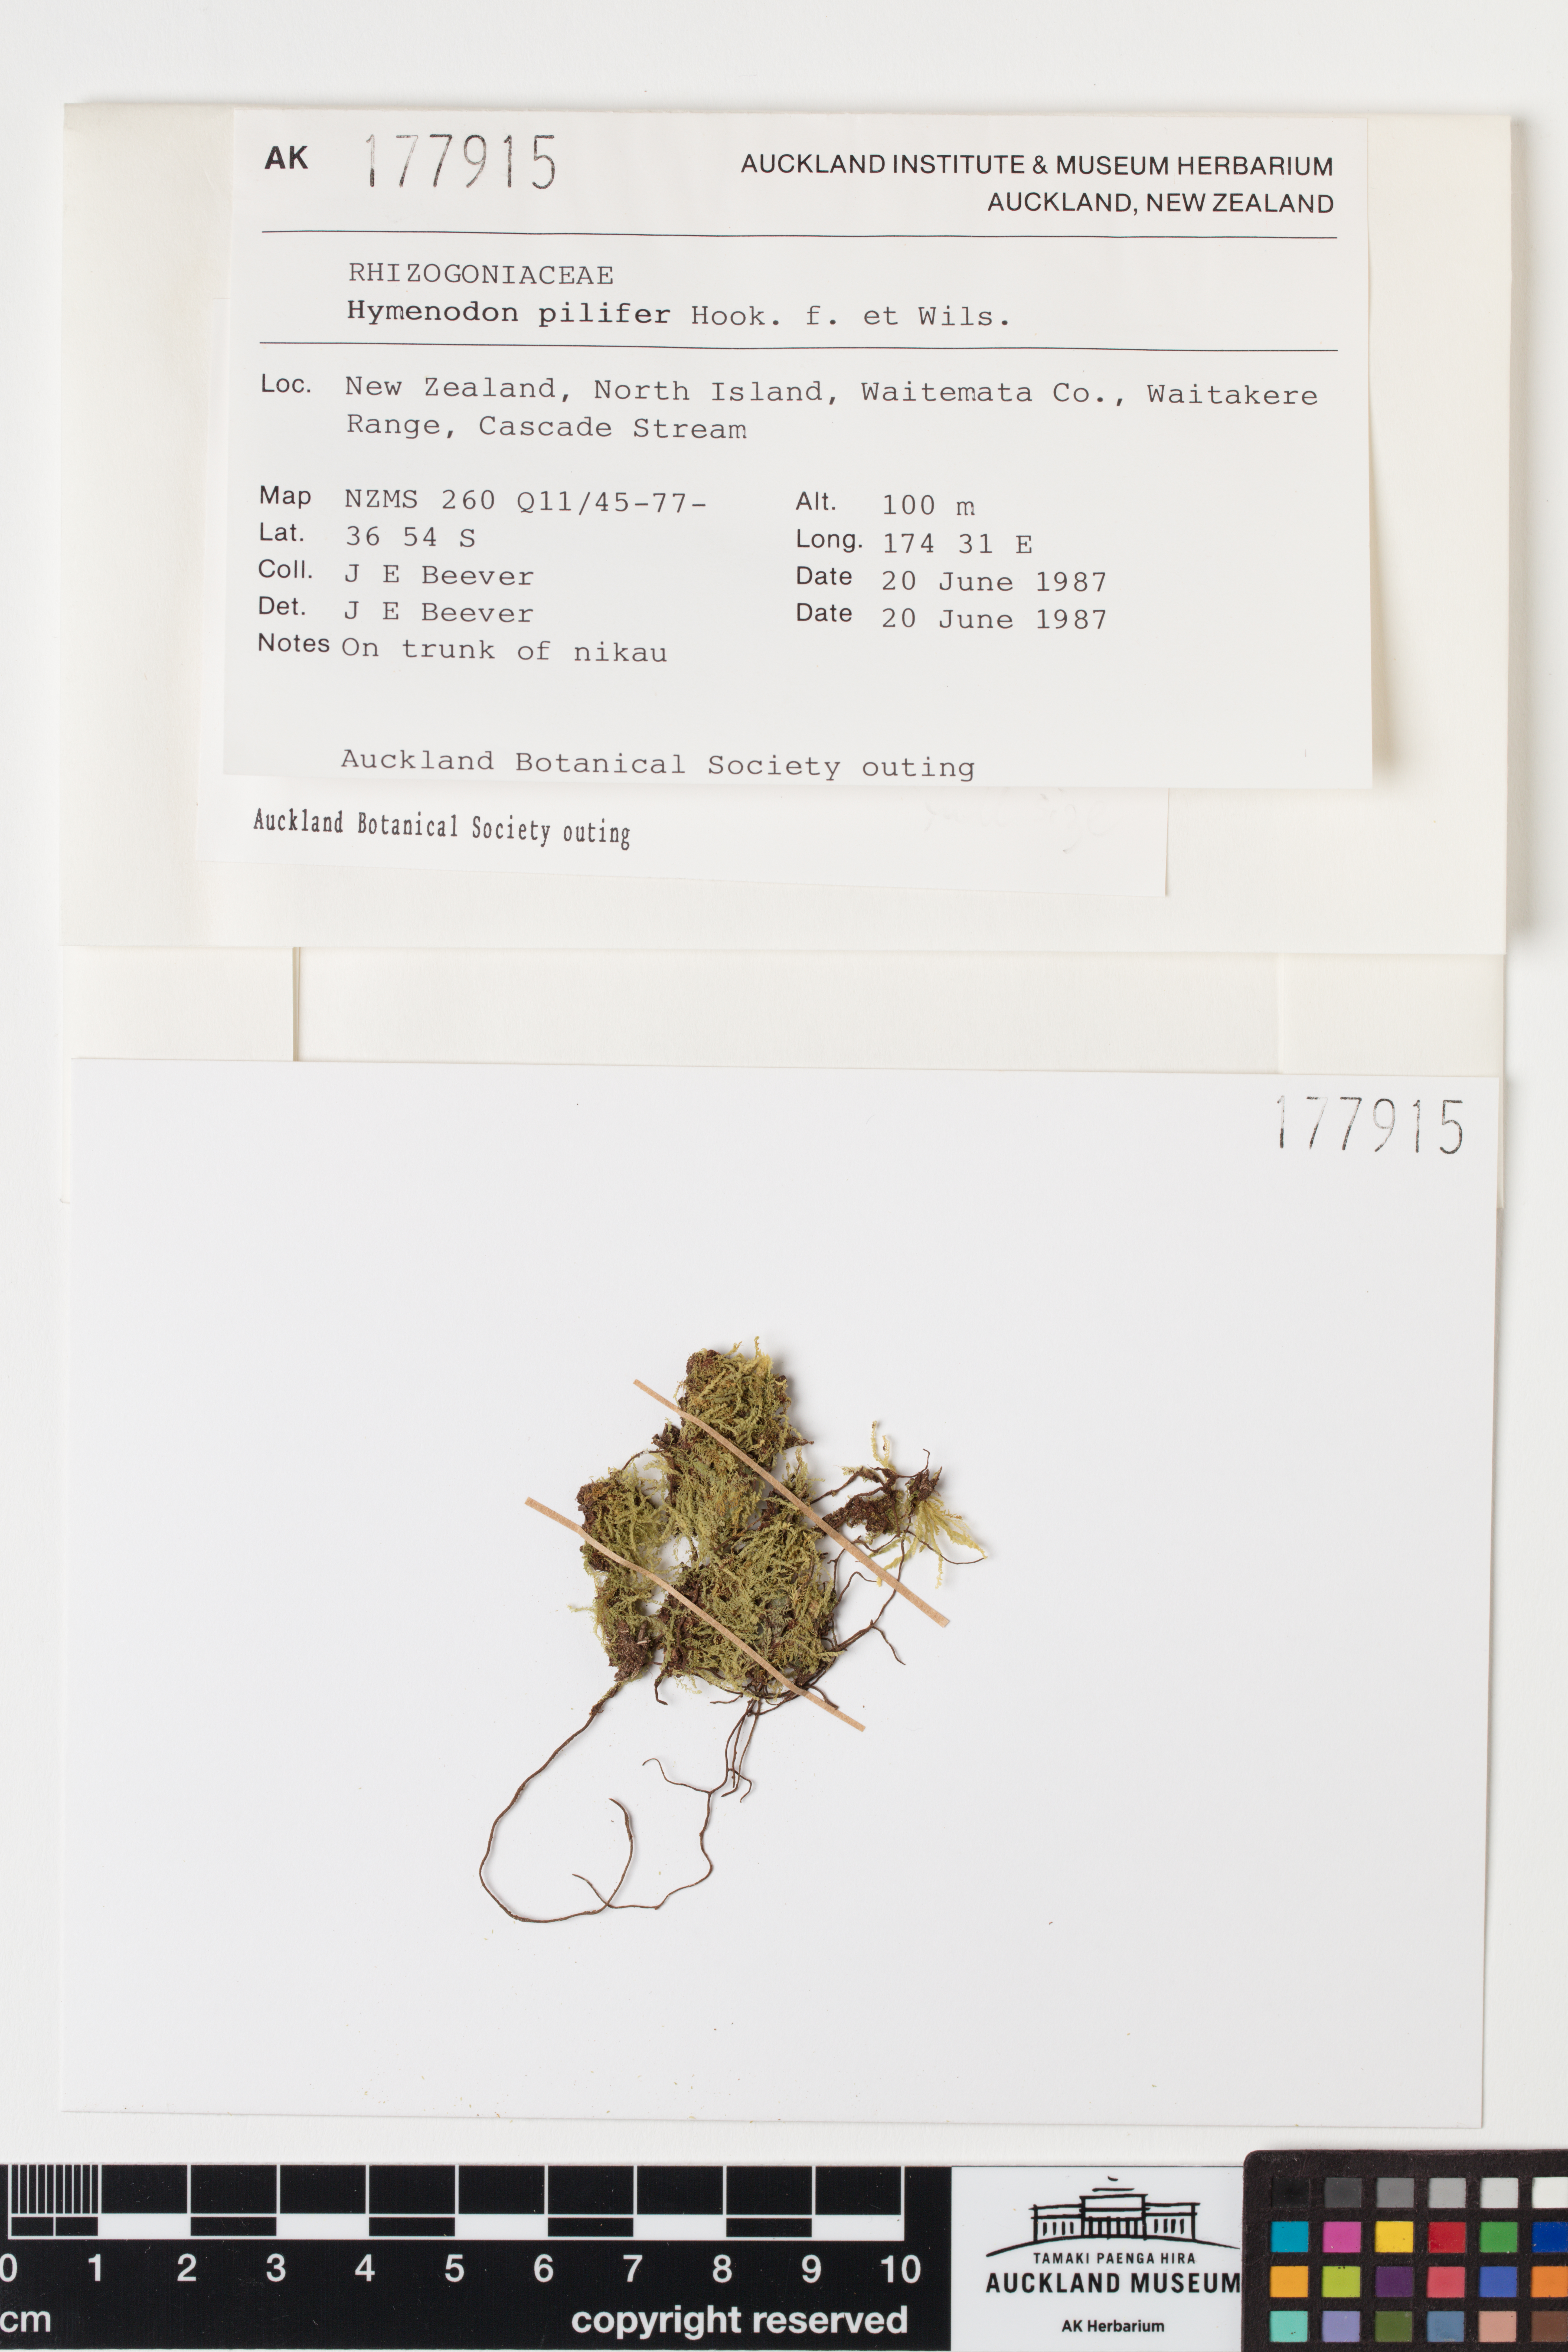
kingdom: Plantae
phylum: Bryophyta
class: Bryopsida
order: Orthodontiales
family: Orthodontiaceae
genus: Hymenodon
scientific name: Hymenodon pilifer
